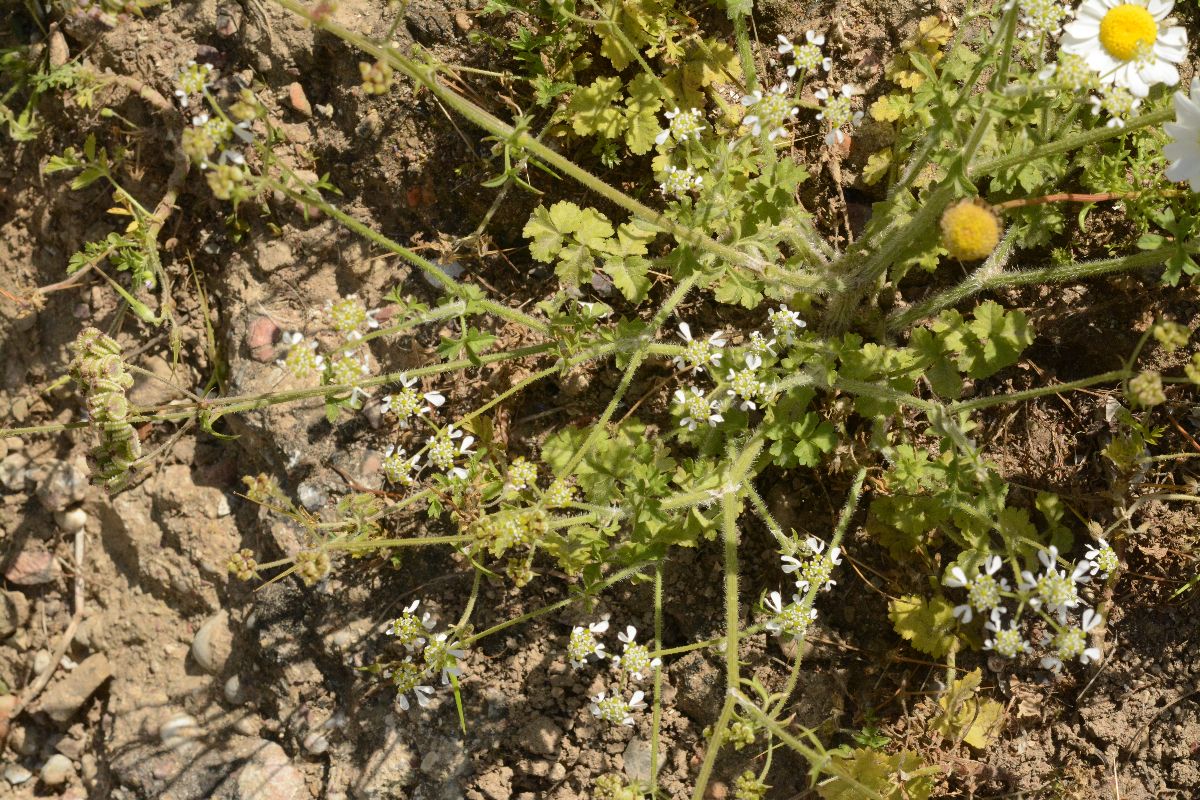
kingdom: Plantae
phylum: Tracheophyta
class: Magnoliopsida
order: Apiales
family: Apiaceae
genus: Tordylium
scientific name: Tordylium apulum
